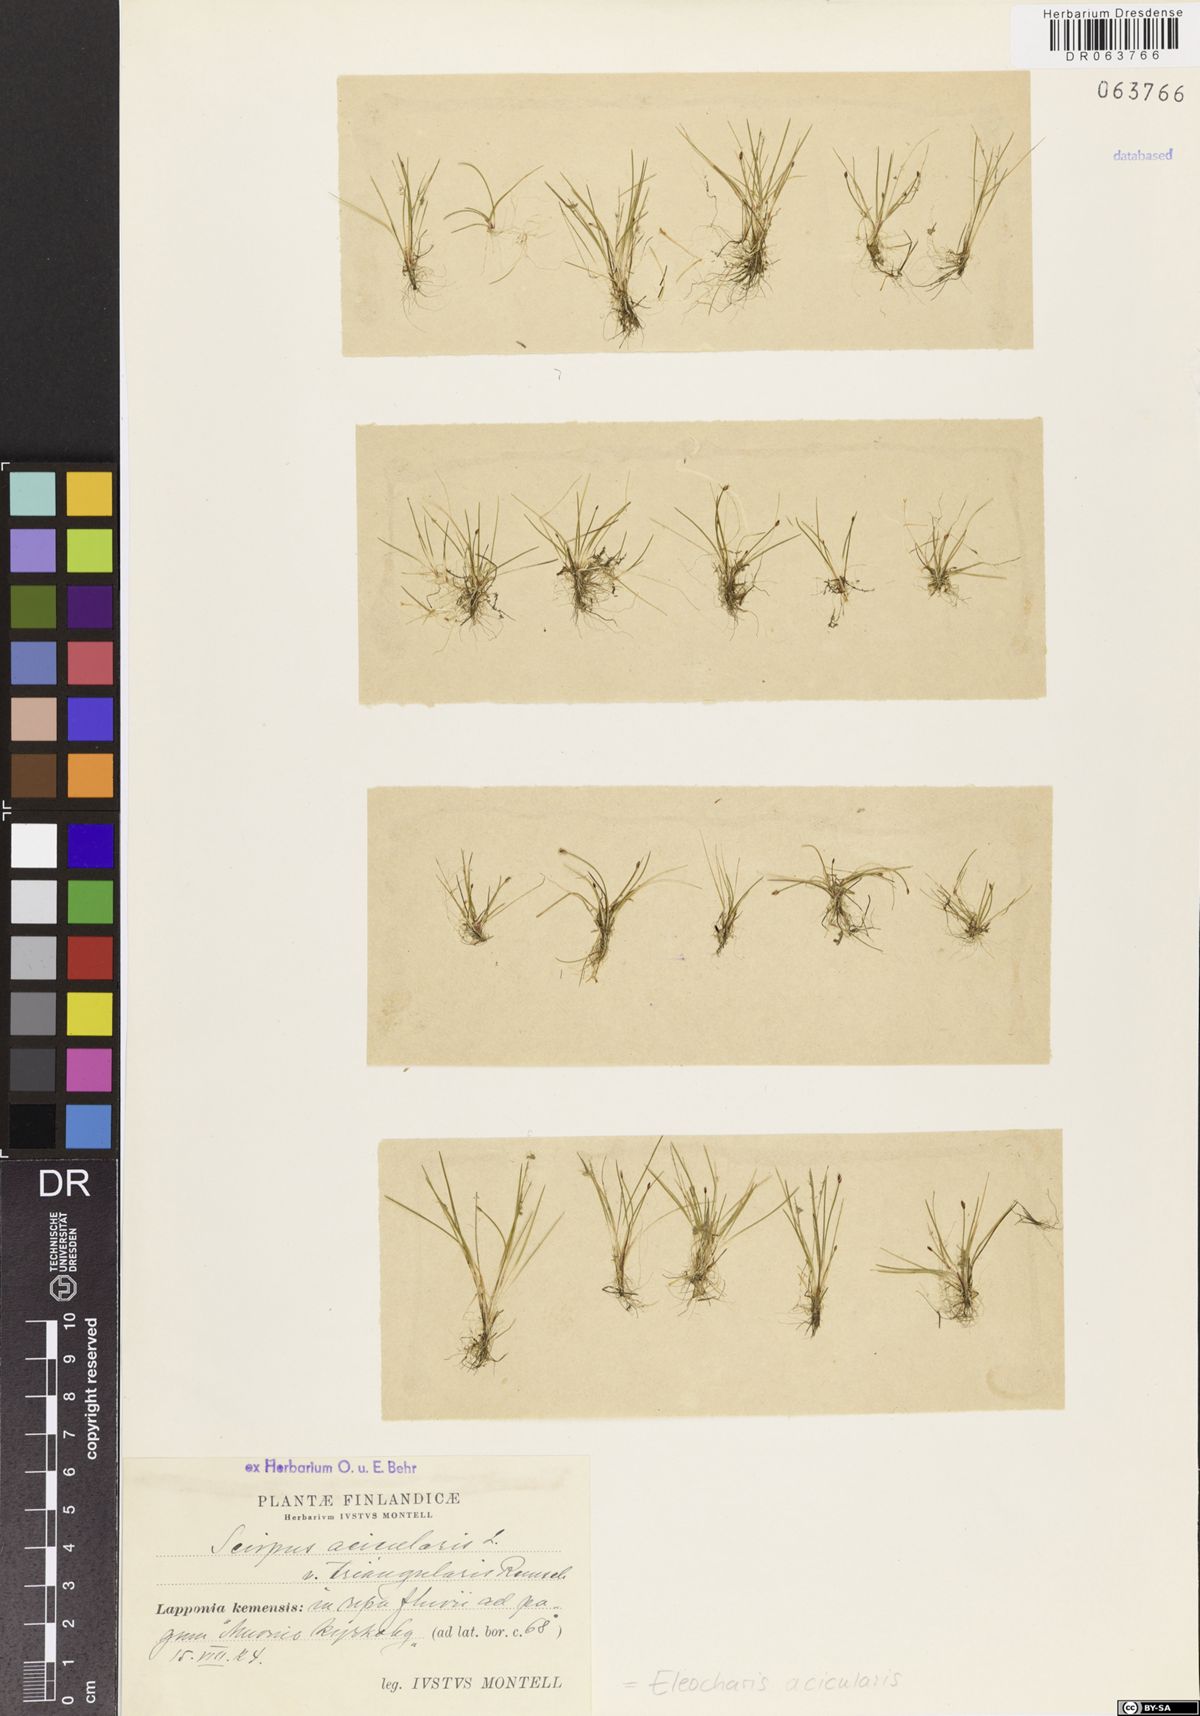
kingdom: Plantae
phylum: Tracheophyta
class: Liliopsida
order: Poales
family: Cyperaceae
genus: Eleocharis
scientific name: Eleocharis acicularis
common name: Needle spike-rush
